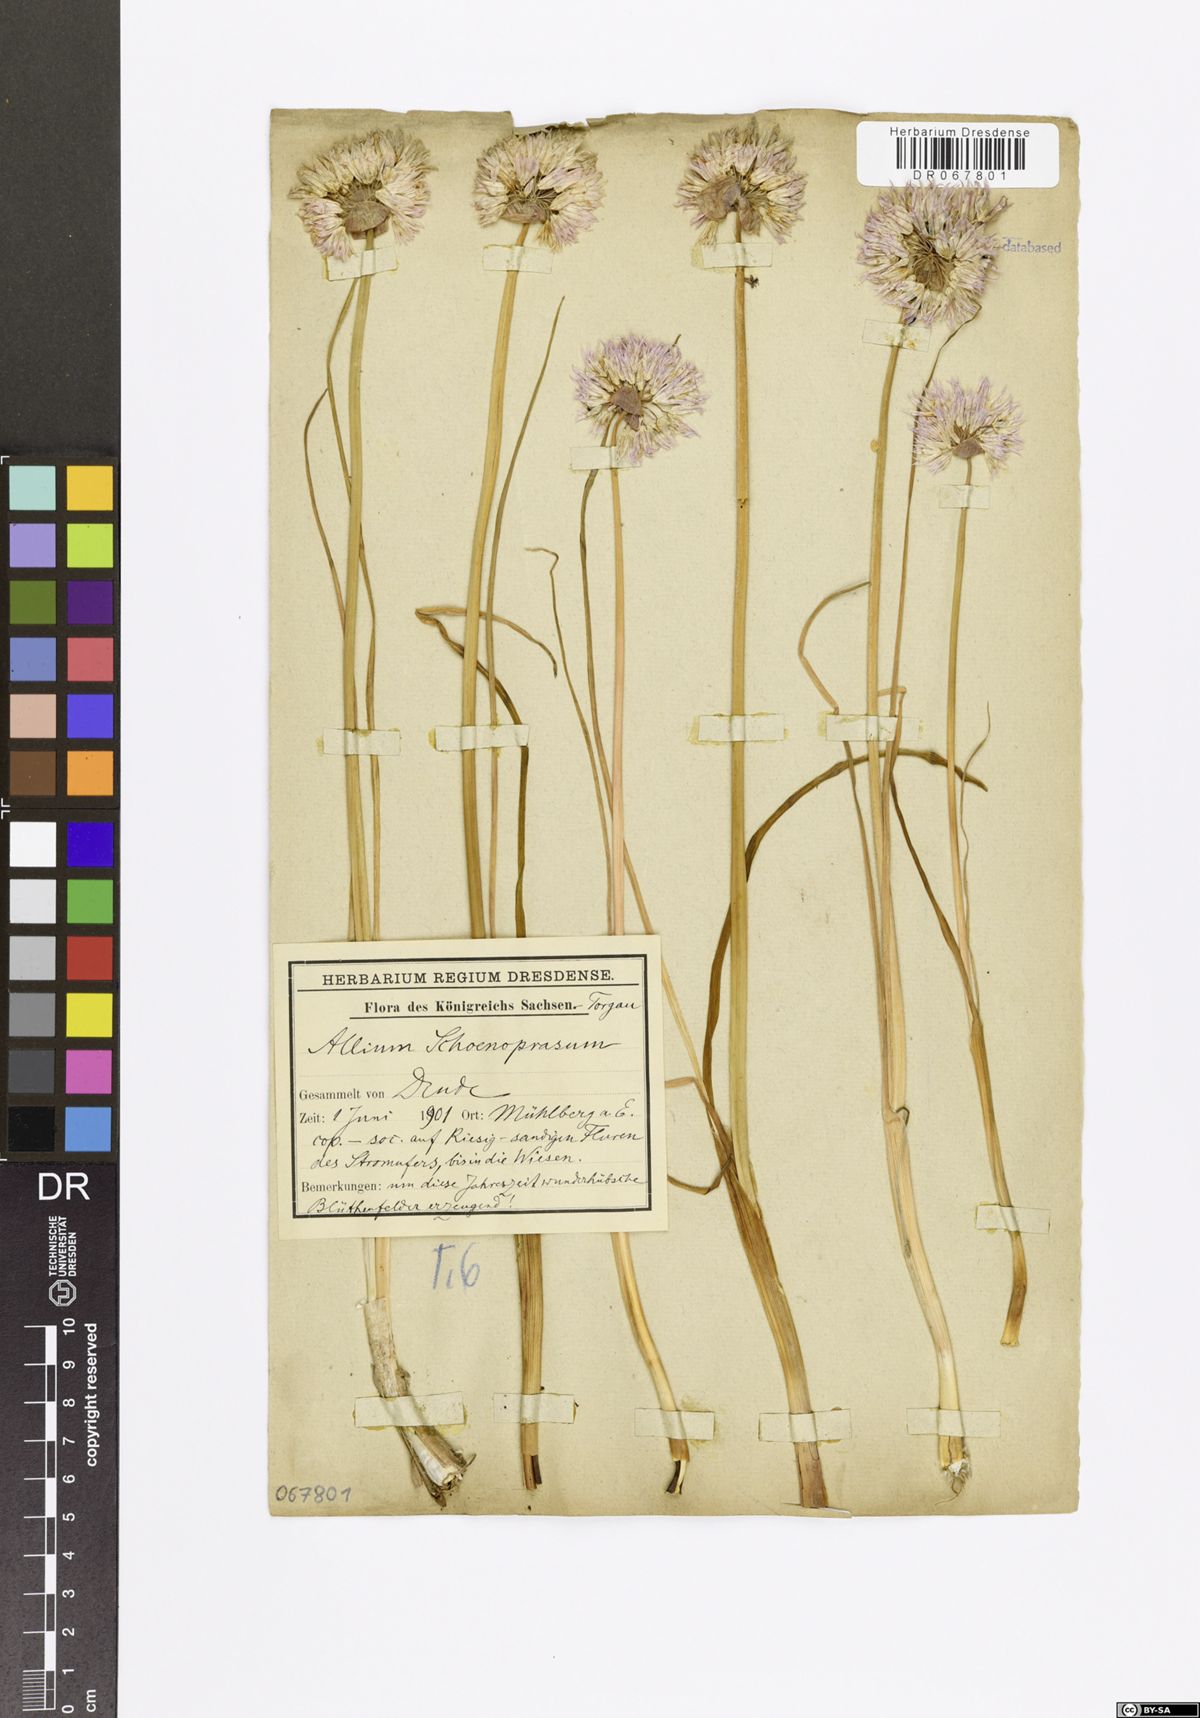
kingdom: Plantae
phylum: Tracheophyta
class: Liliopsida
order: Asparagales
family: Amaryllidaceae
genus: Allium
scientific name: Allium schoenoprasum
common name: Chives
